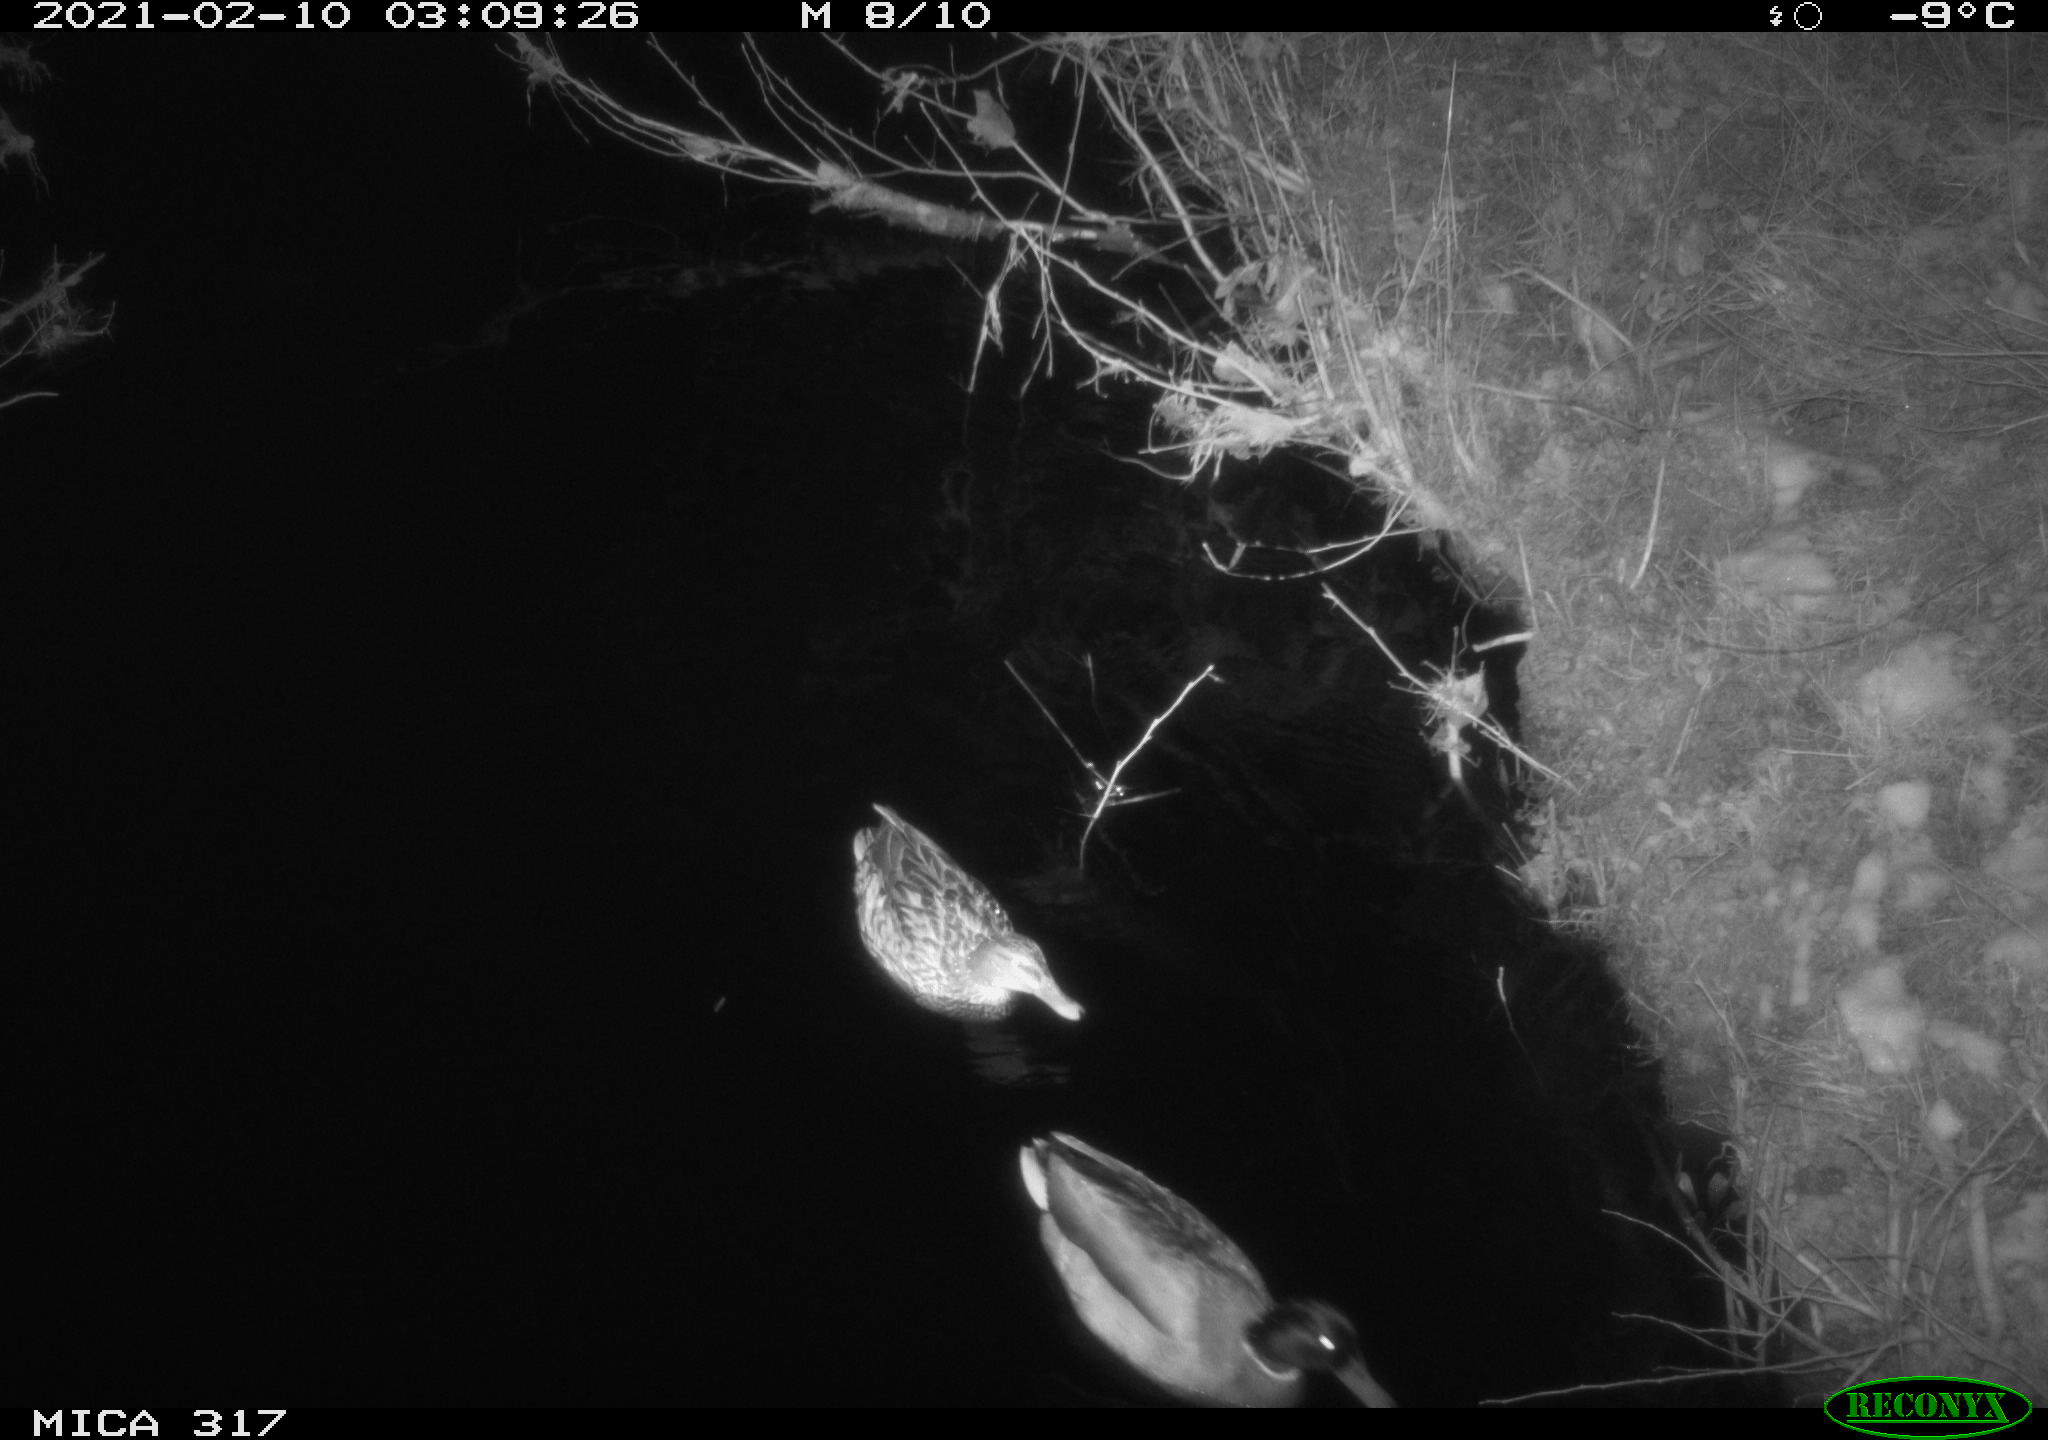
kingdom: Animalia
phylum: Chordata
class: Aves
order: Anseriformes
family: Anatidae
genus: Anas
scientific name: Anas platyrhynchos
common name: Mallard
